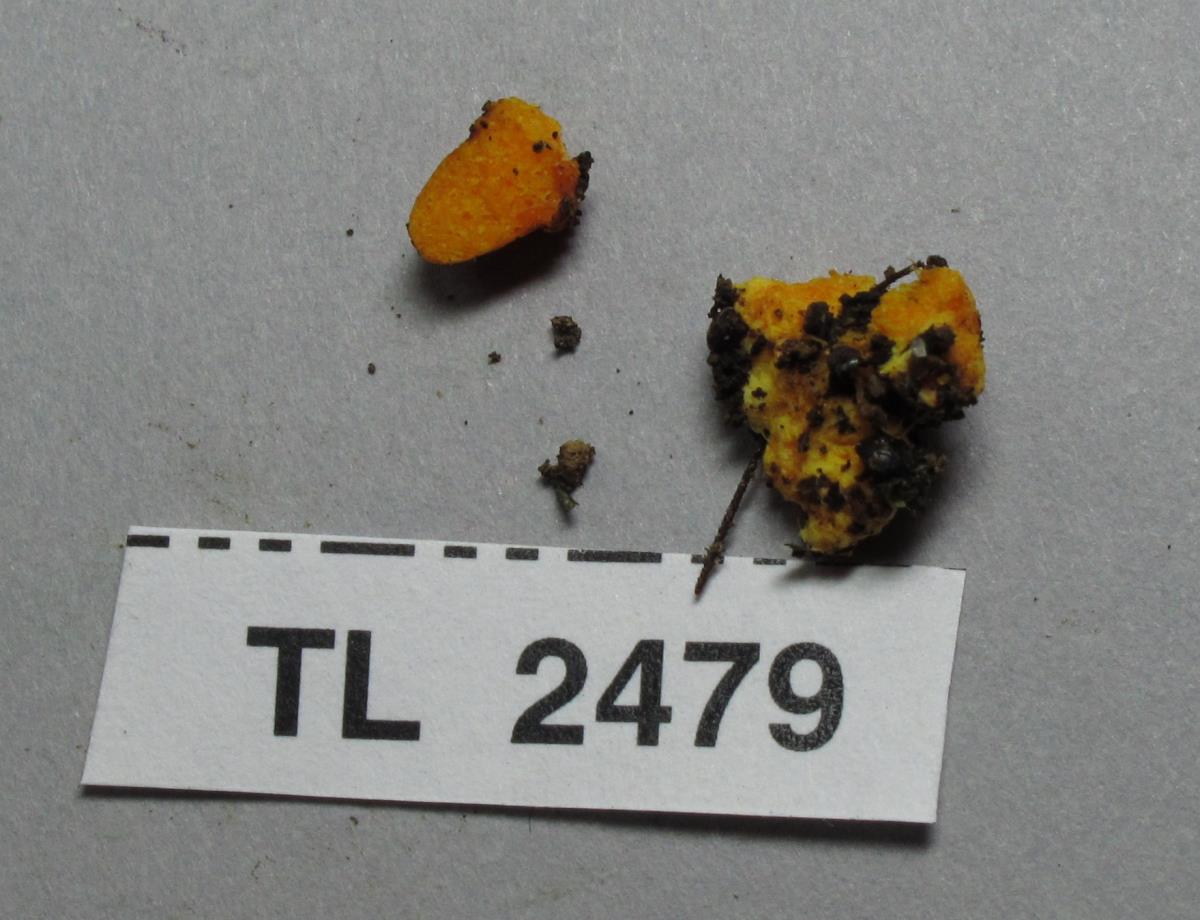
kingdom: Fungi
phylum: Basidiomycota
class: Agaricomycetes
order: Agaricales
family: Stephanosporaceae
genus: Stephanospora
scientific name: Stephanospora
